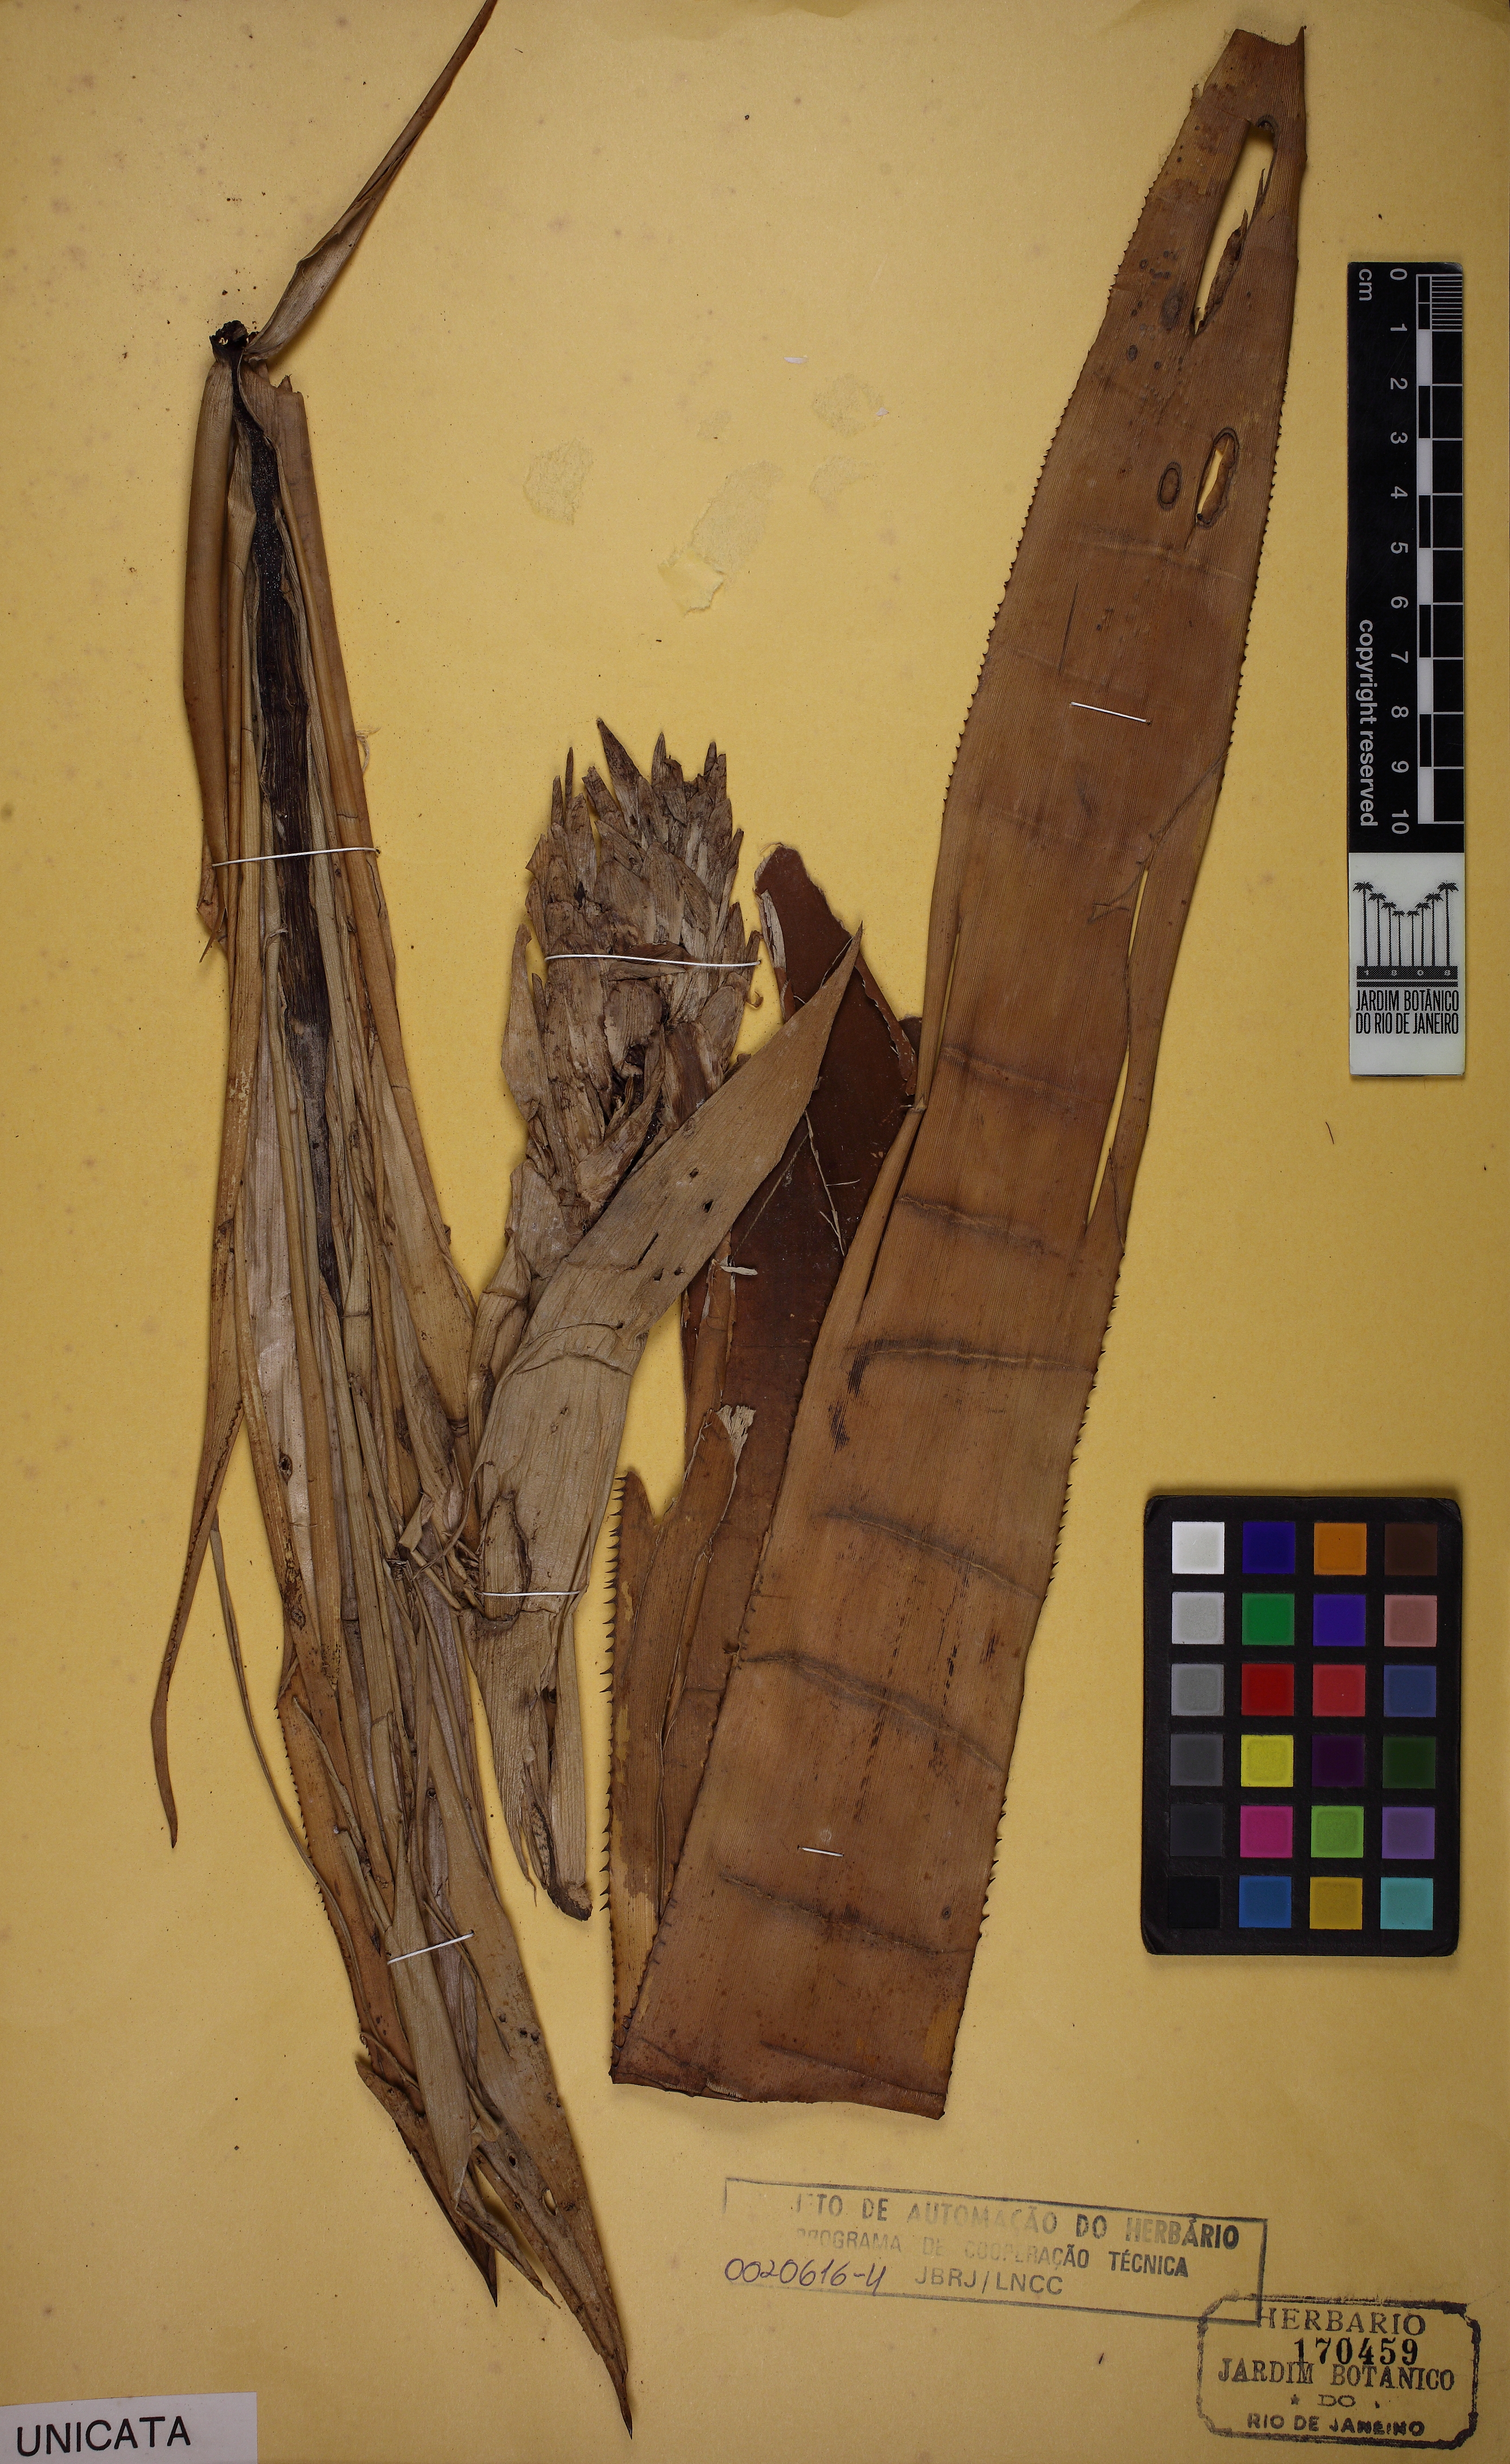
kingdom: Plantae
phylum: Tracheophyta
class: Liliopsida
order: Poales
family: Bromeliaceae
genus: Quesnelia
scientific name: Quesnelia quesneliana
